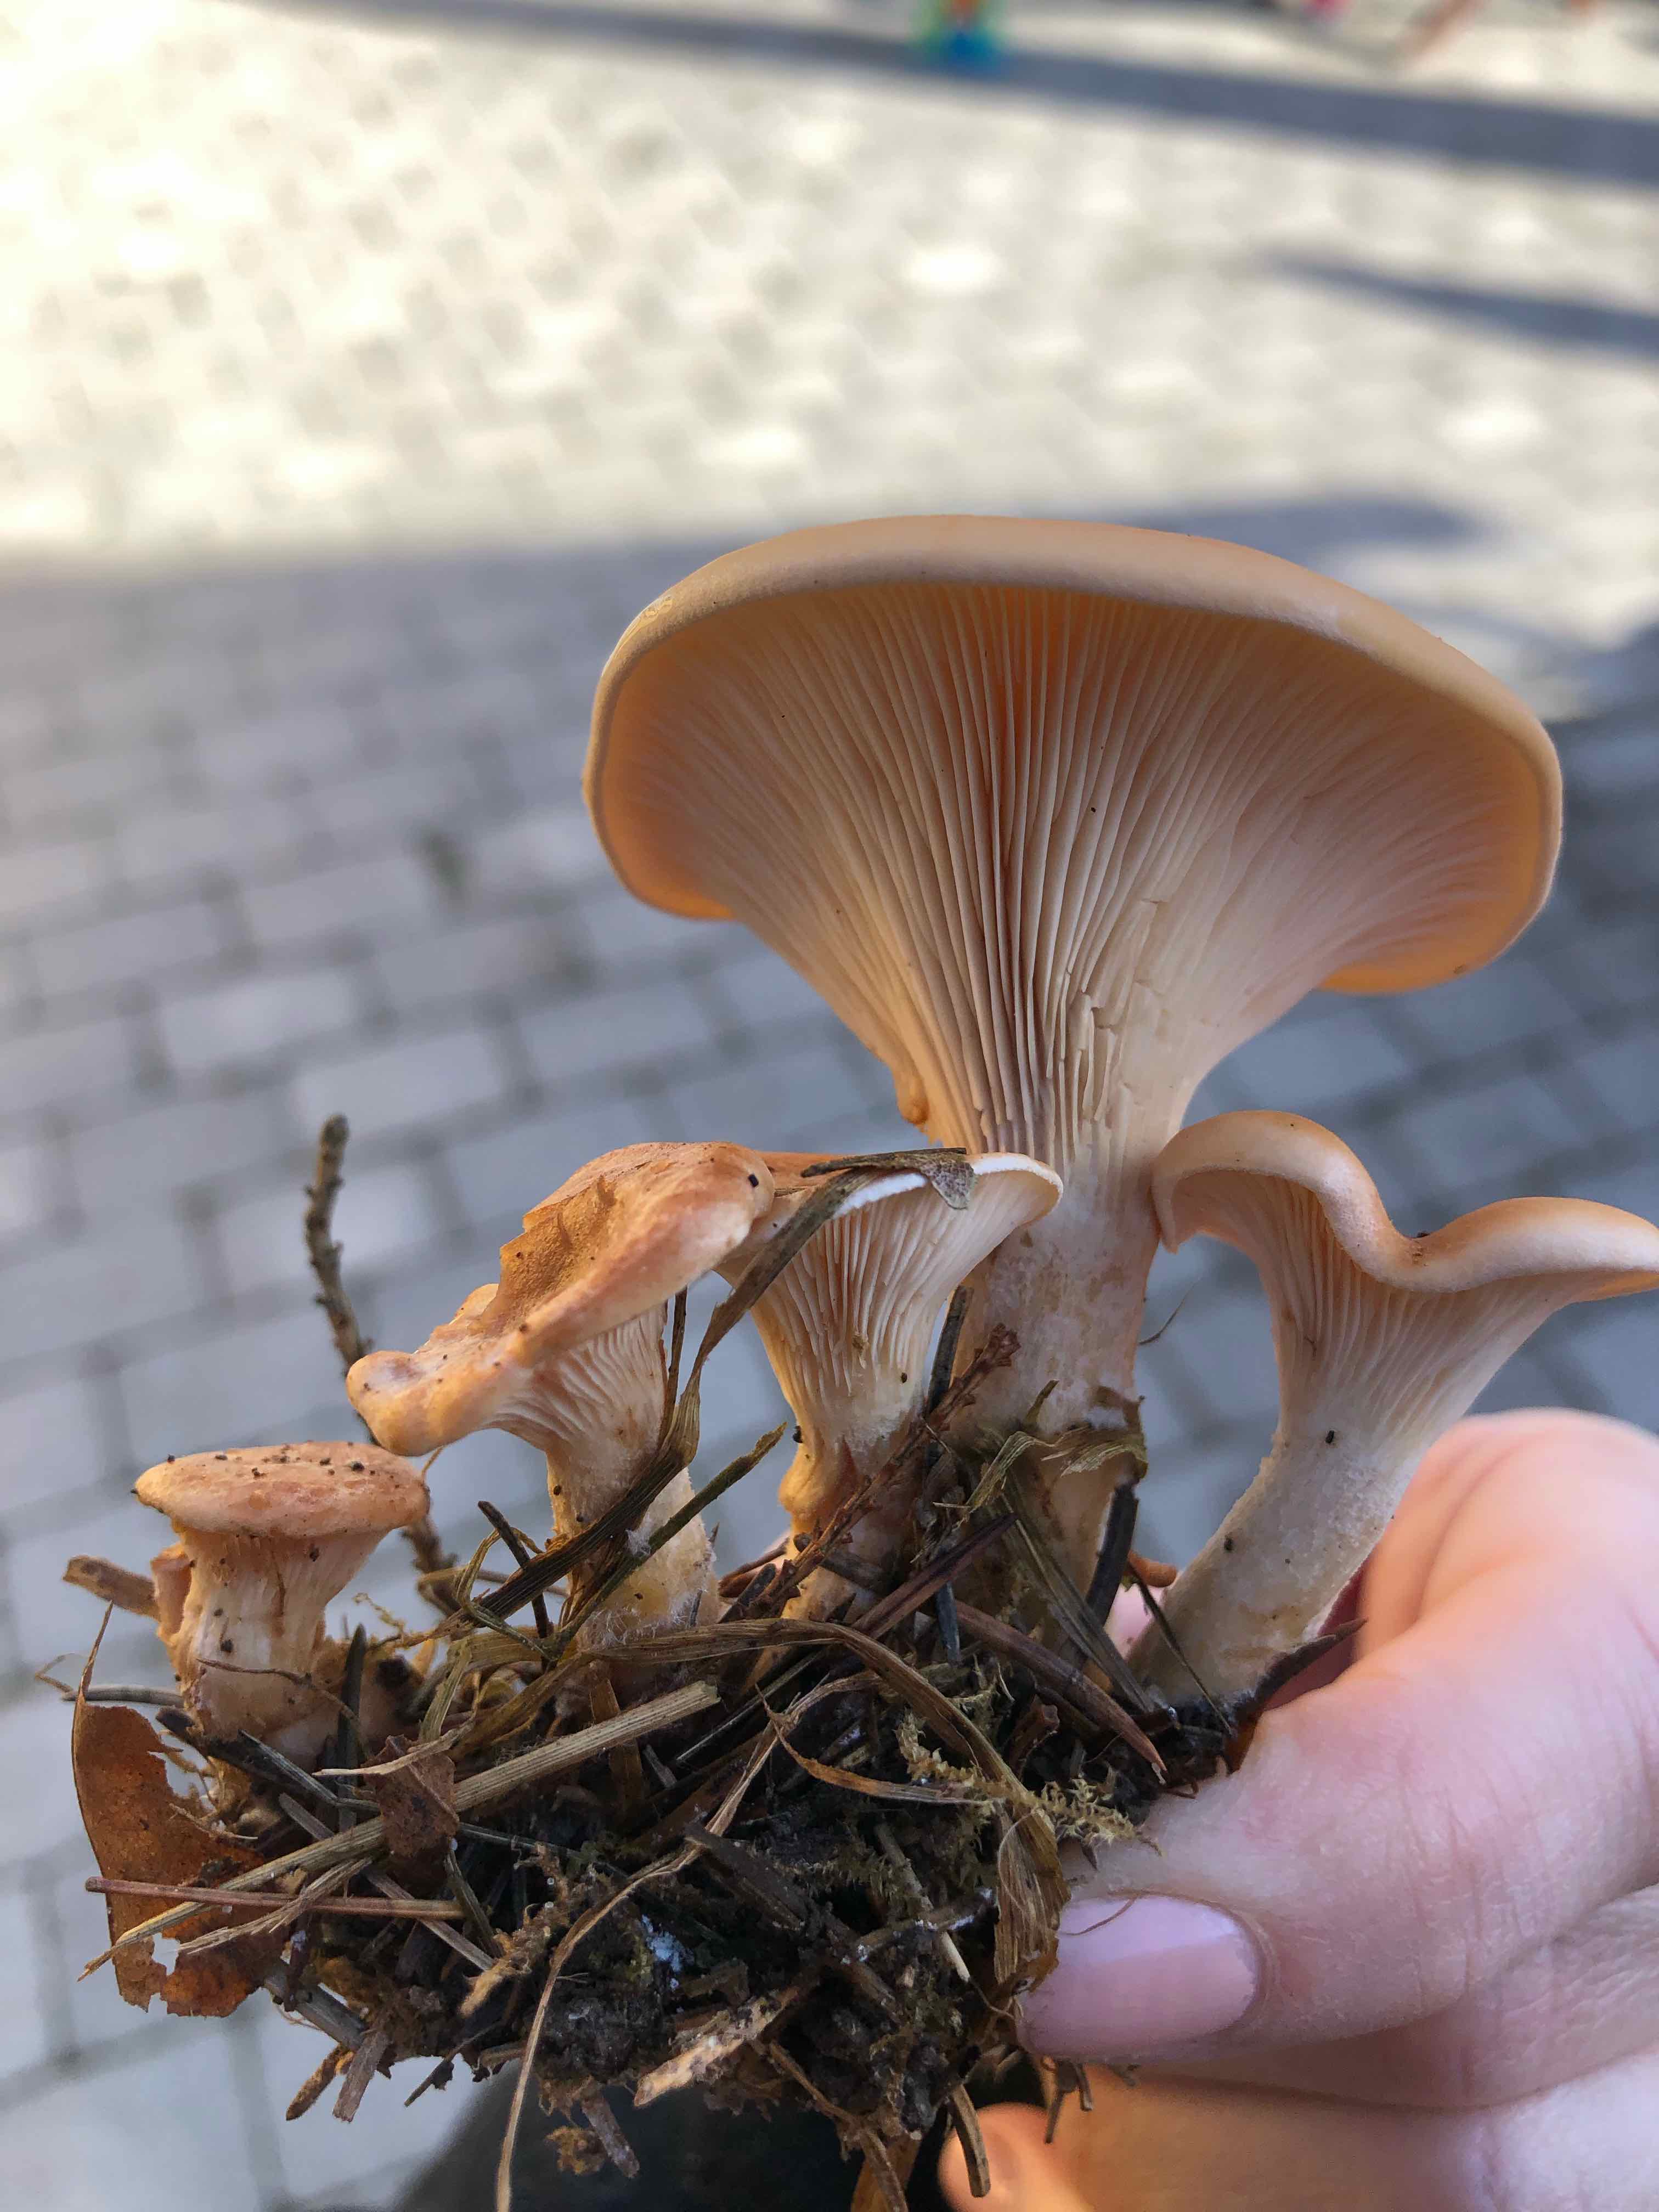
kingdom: Fungi
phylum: Basidiomycota
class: Agaricomycetes
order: Agaricales
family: Tricholomataceae
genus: Paralepista
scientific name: Paralepista flaccida
